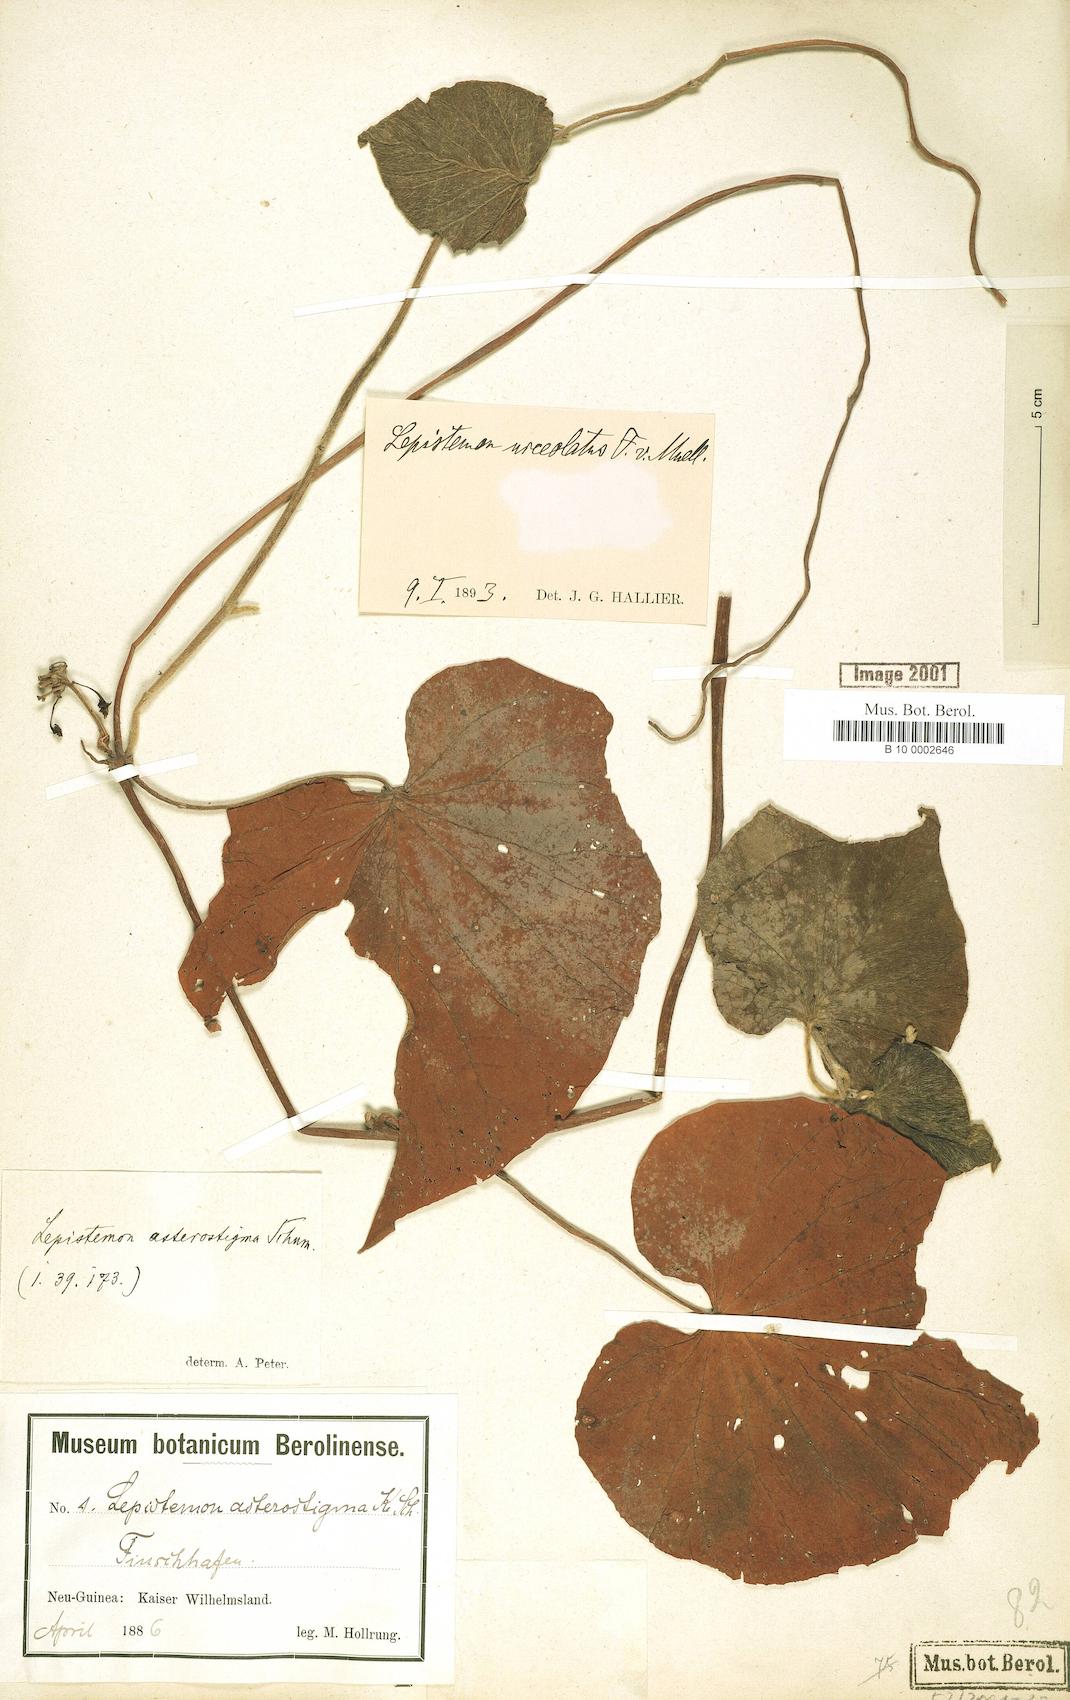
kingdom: Plantae
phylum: Tracheophyta
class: Magnoliopsida
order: Solanales
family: Convolvulaceae
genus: Lepistemon
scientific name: Lepistemon urceolatus
